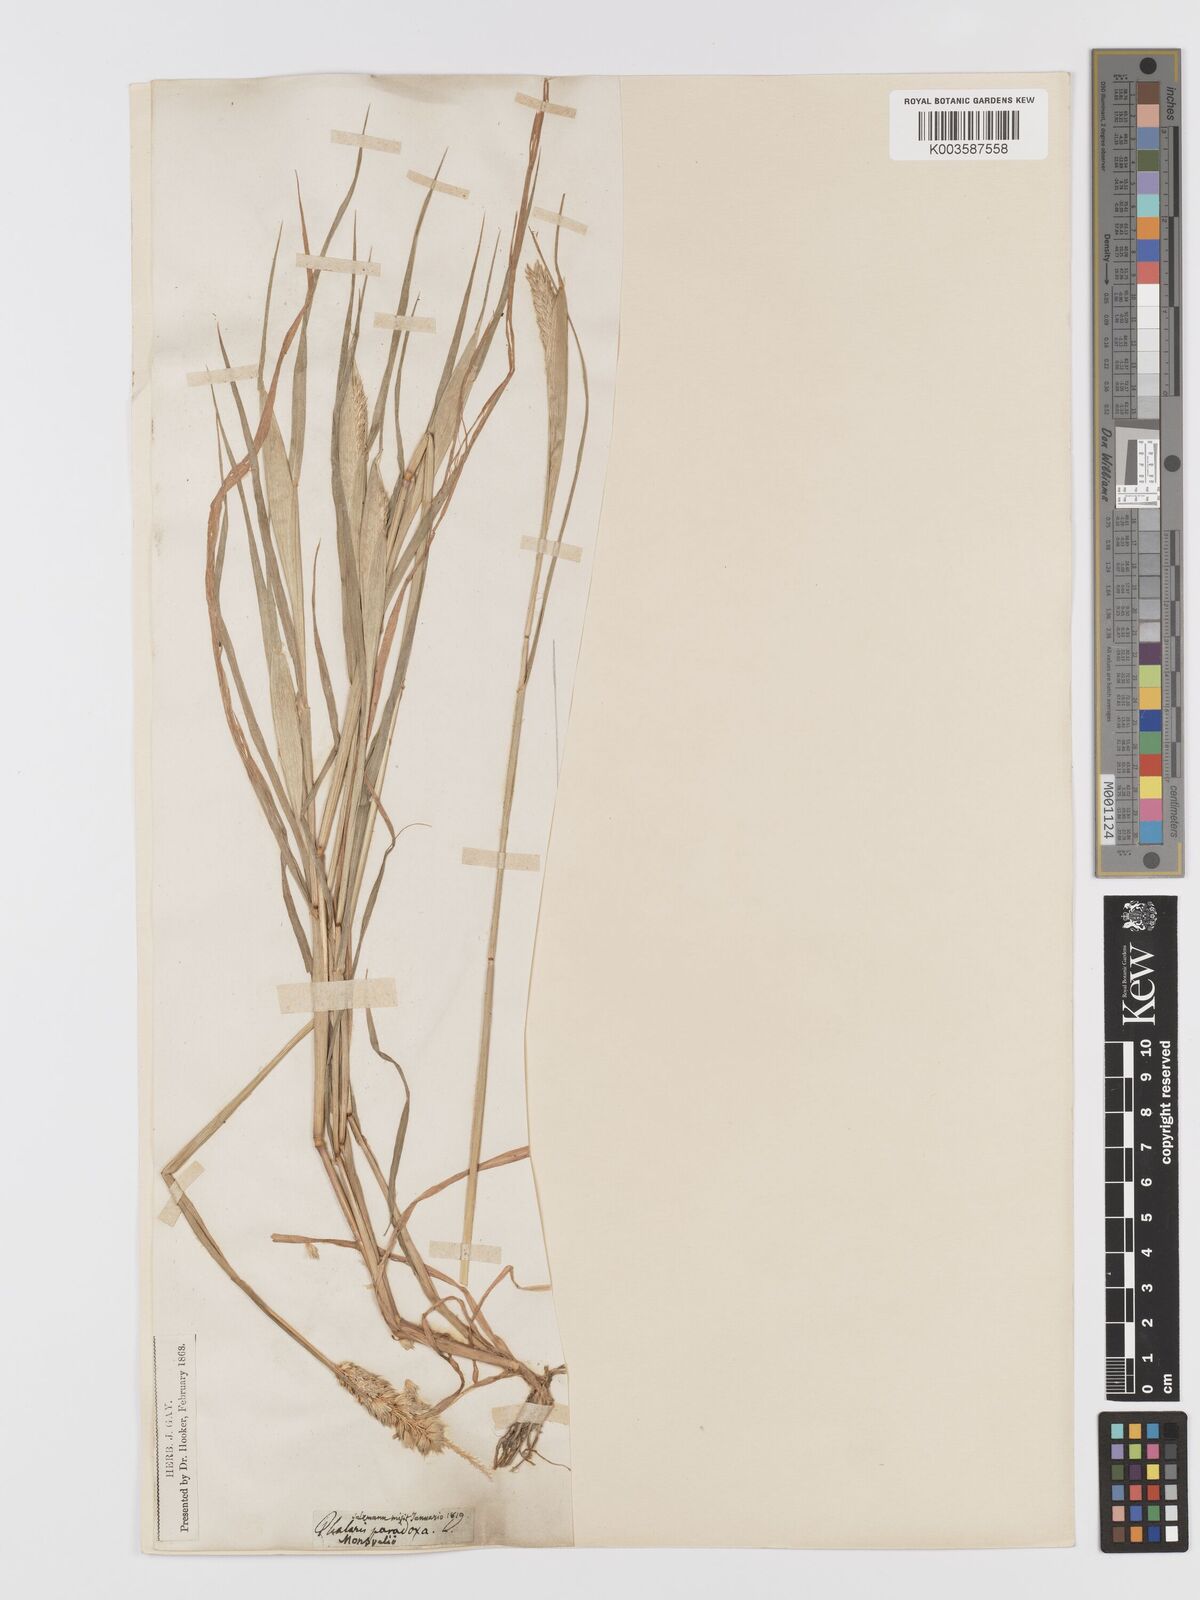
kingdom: Plantae
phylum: Tracheophyta
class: Liliopsida
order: Poales
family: Poaceae
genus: Phalaris
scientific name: Phalaris paradoxa
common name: Awned canary-grass
